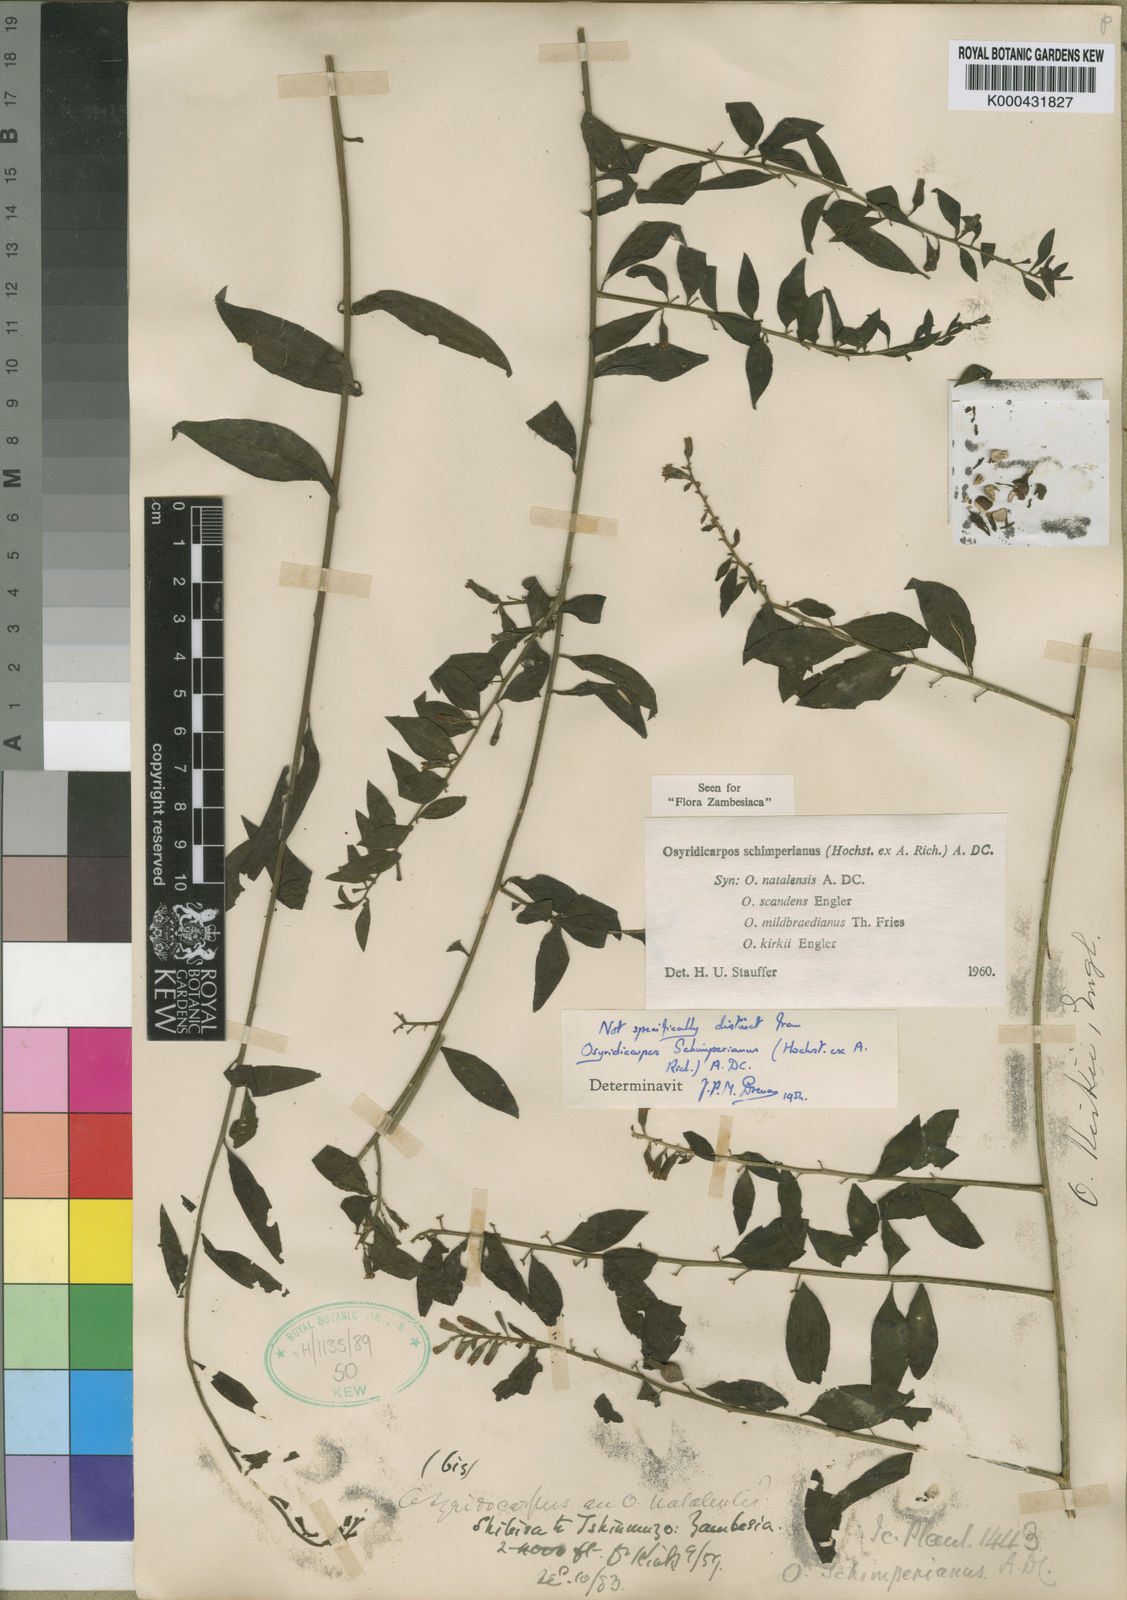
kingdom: Plantae
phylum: Tracheophyta
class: Magnoliopsida
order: Santalales
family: Thesiaceae
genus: Osyridicarpos
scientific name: Osyridicarpos schimperianus
